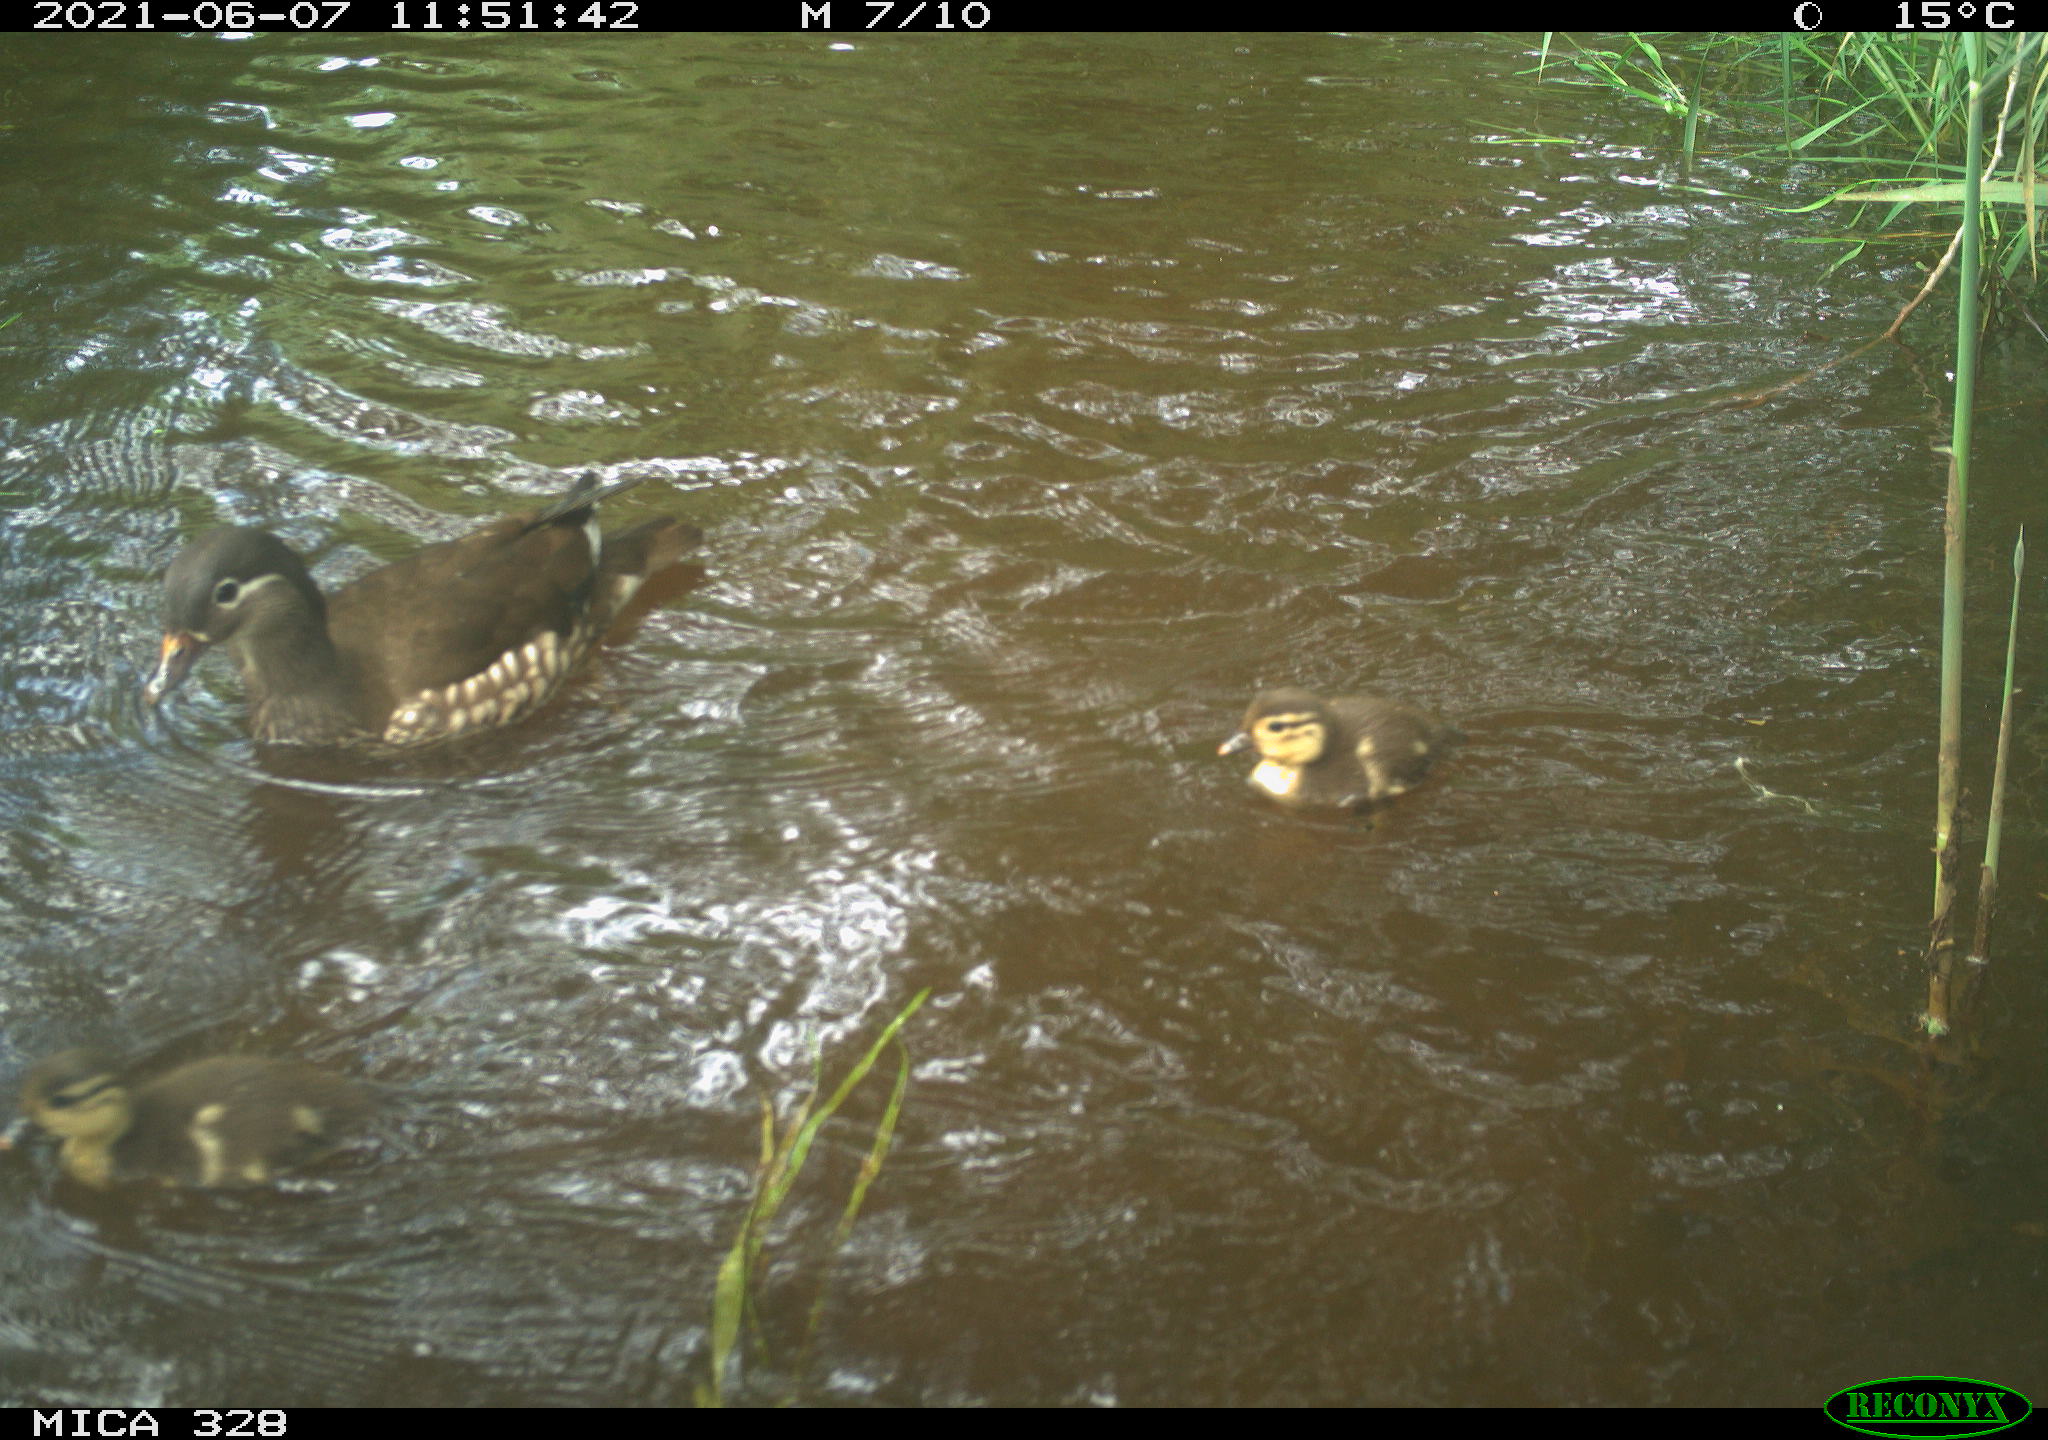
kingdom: Animalia
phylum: Chordata
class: Aves
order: Anseriformes
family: Anatidae
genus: Aix
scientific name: Aix galericulata
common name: Mandarin duck
